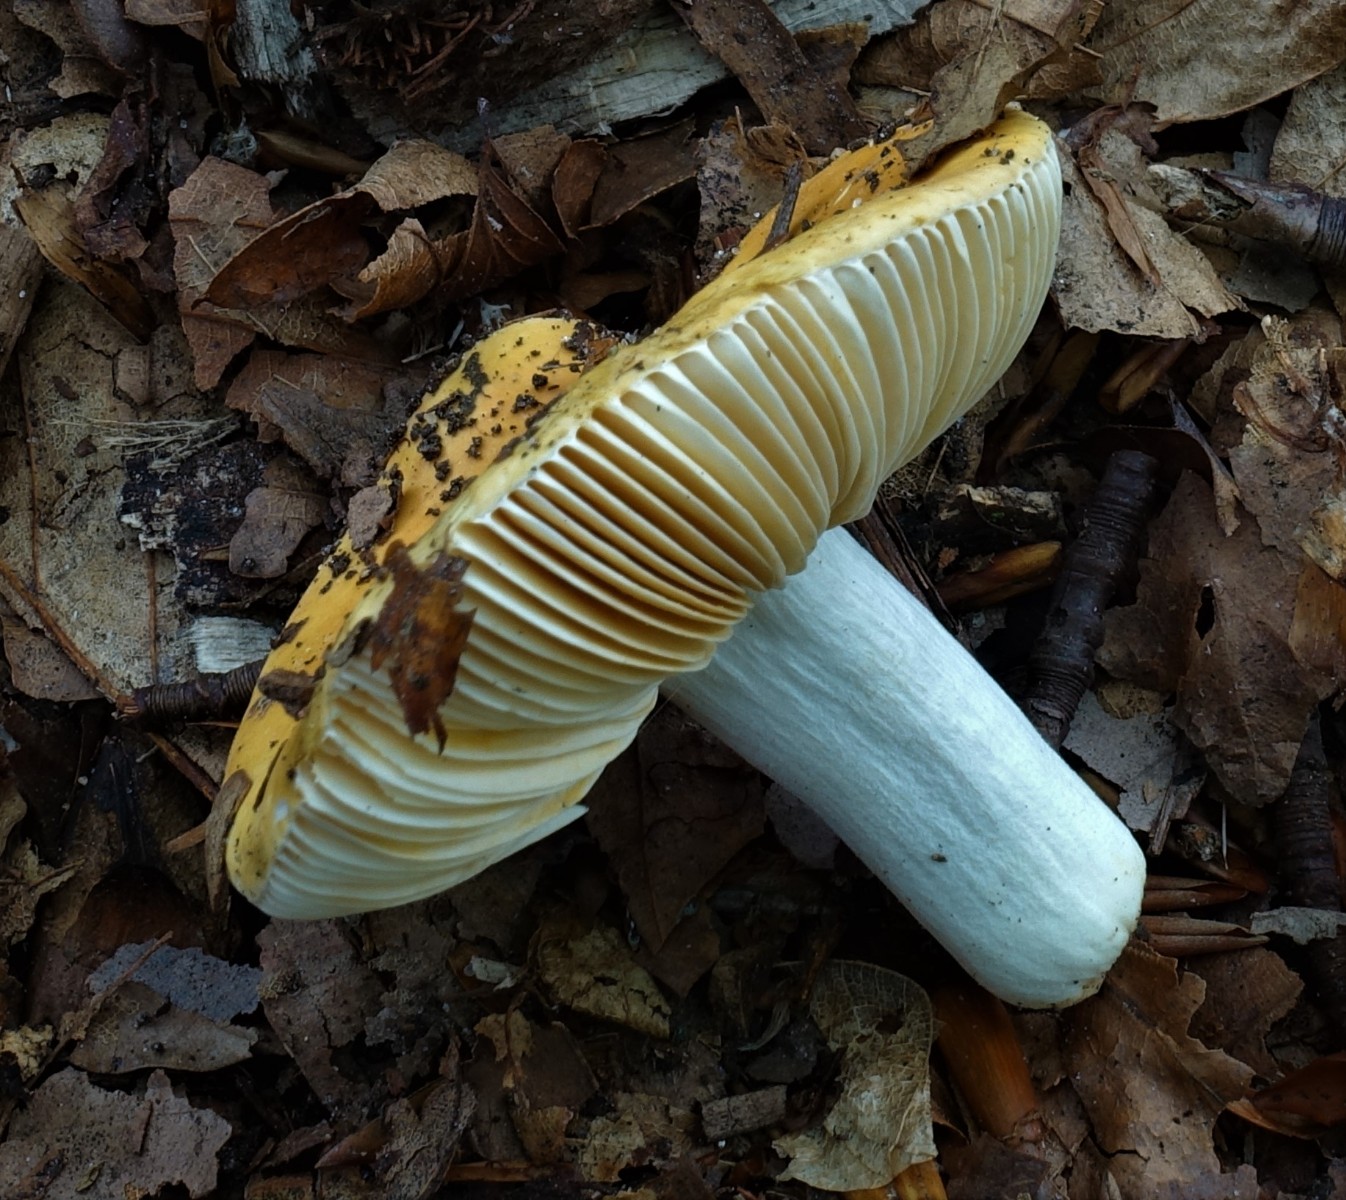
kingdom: Fungi
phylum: Basidiomycota
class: Agaricomycetes
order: Russulales
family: Russulaceae
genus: Russula
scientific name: Russula risigallina
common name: abrikos-skørhat
